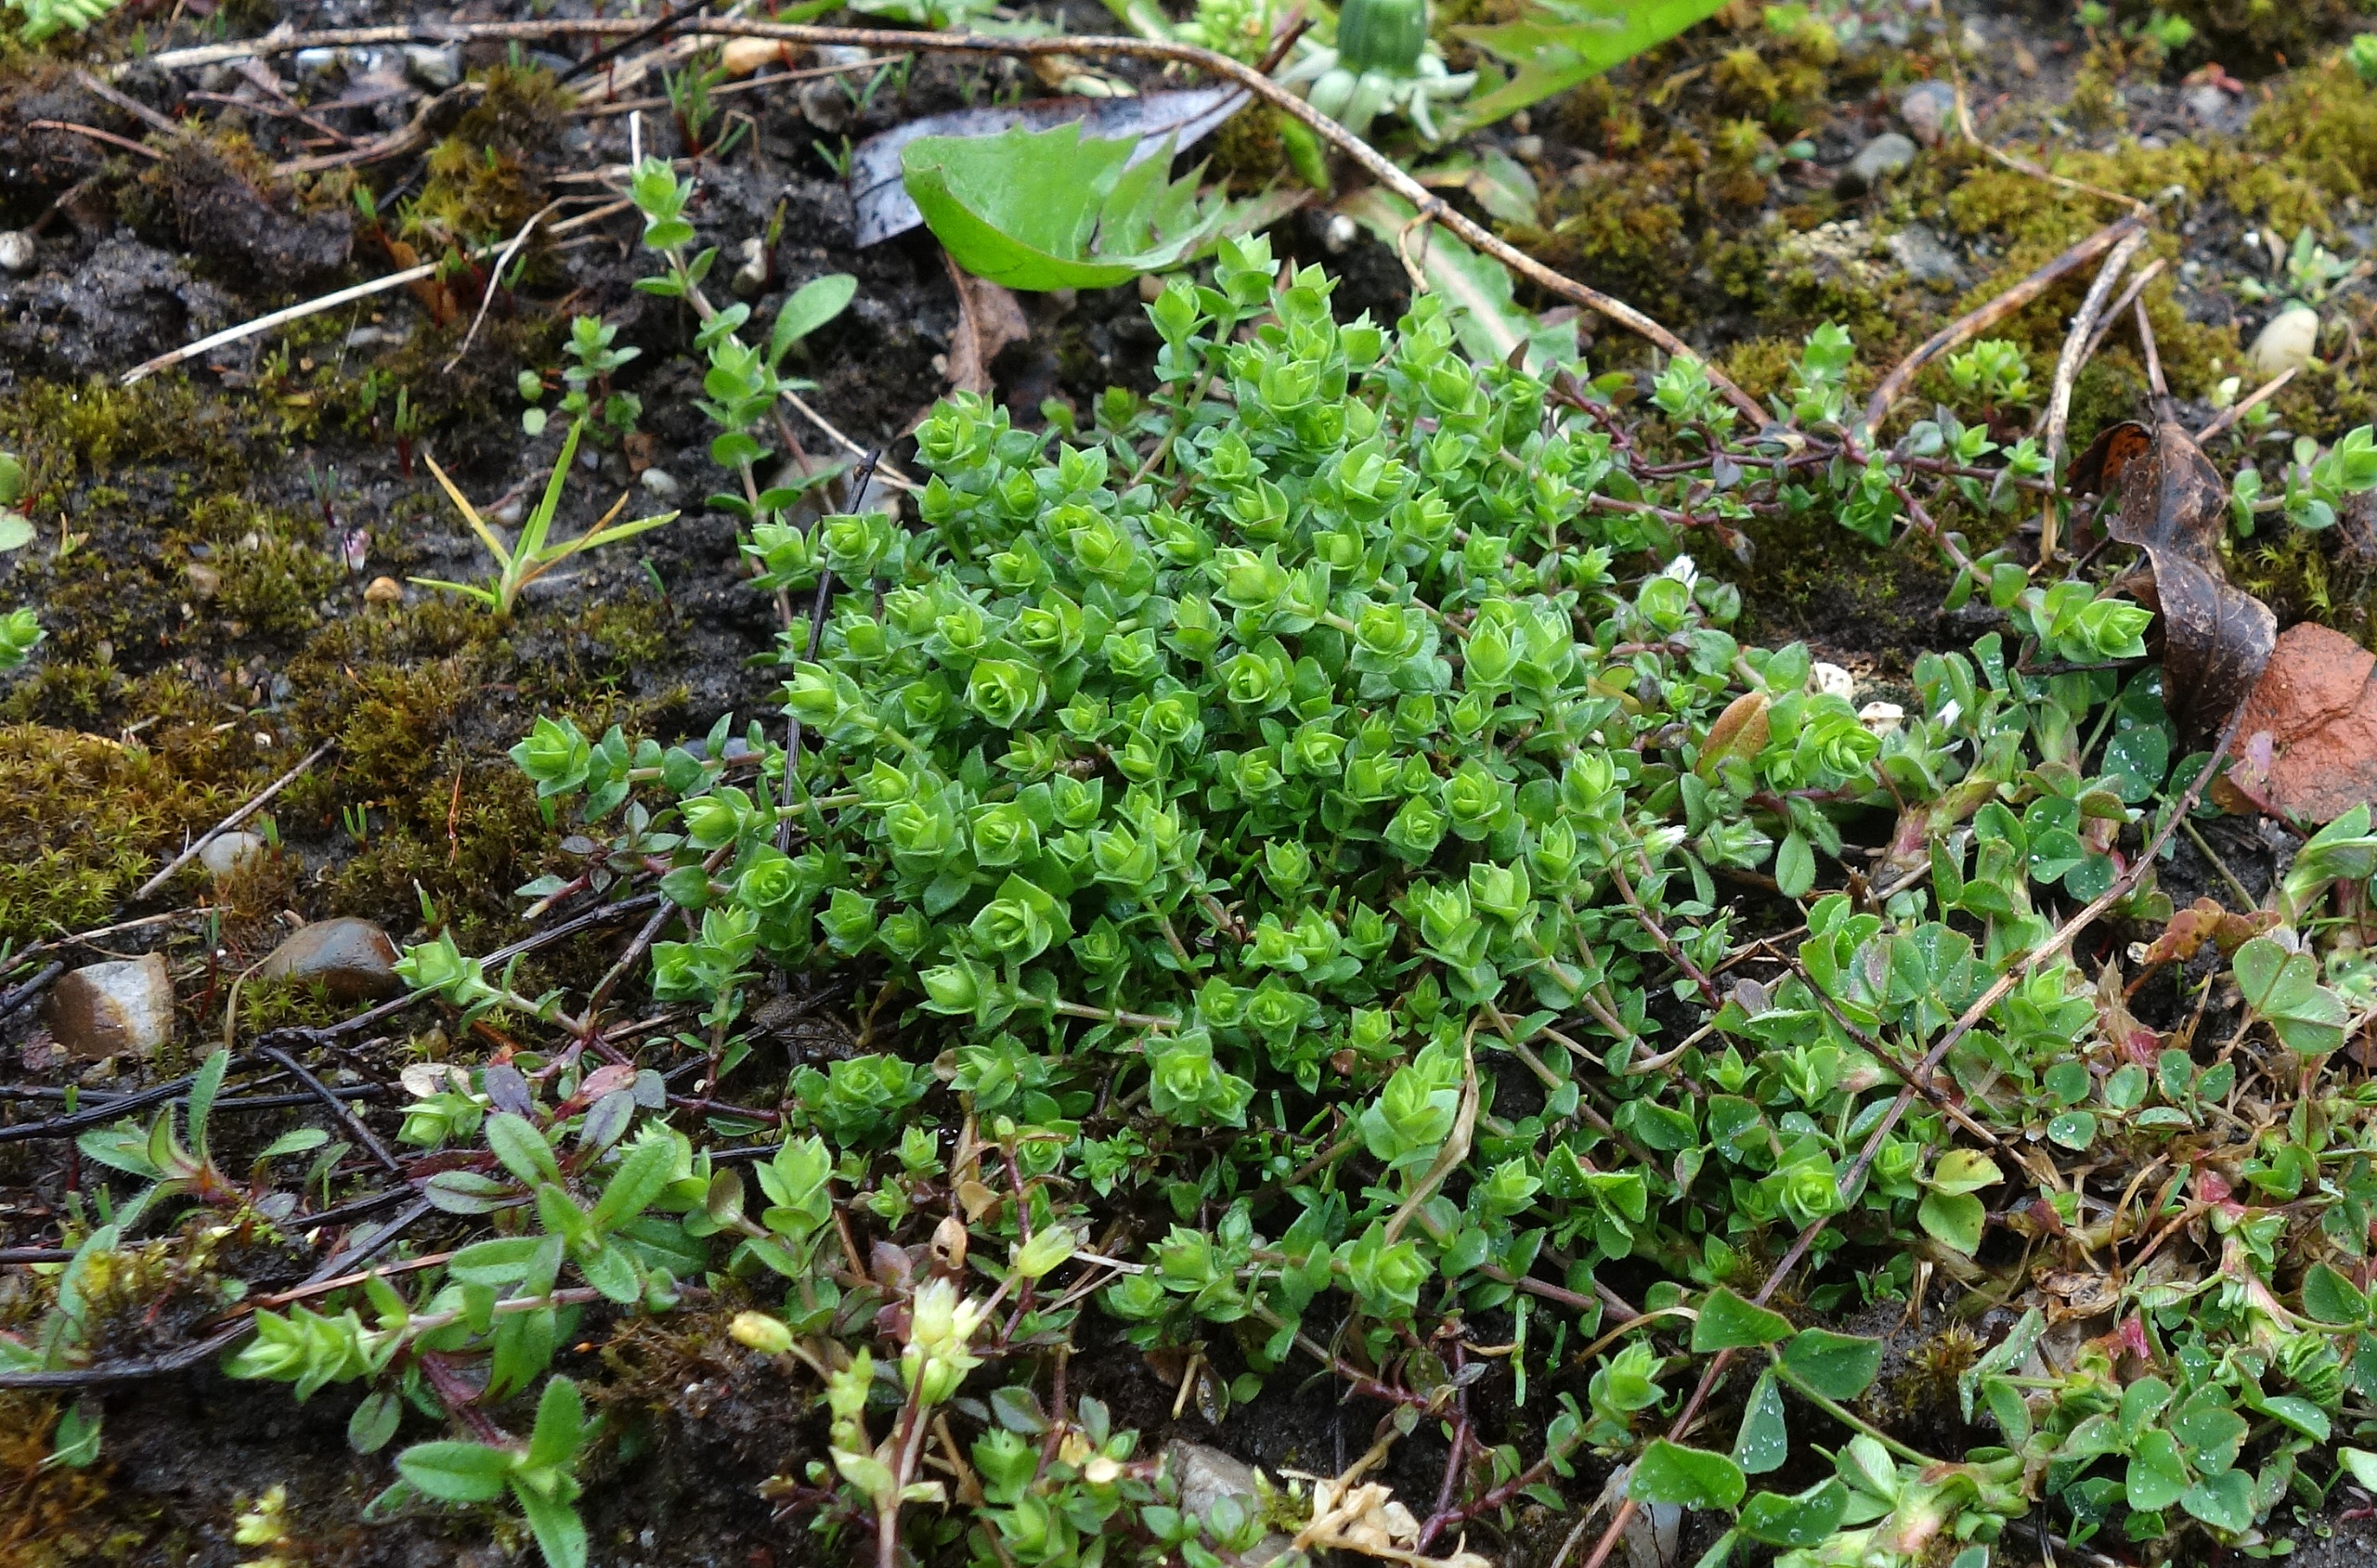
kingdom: Plantae
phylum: Tracheophyta
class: Magnoliopsida
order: Caryophyllales
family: Caryophyllaceae
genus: Arenaria
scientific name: Arenaria serpyllifolia
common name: Almindelig markarve
